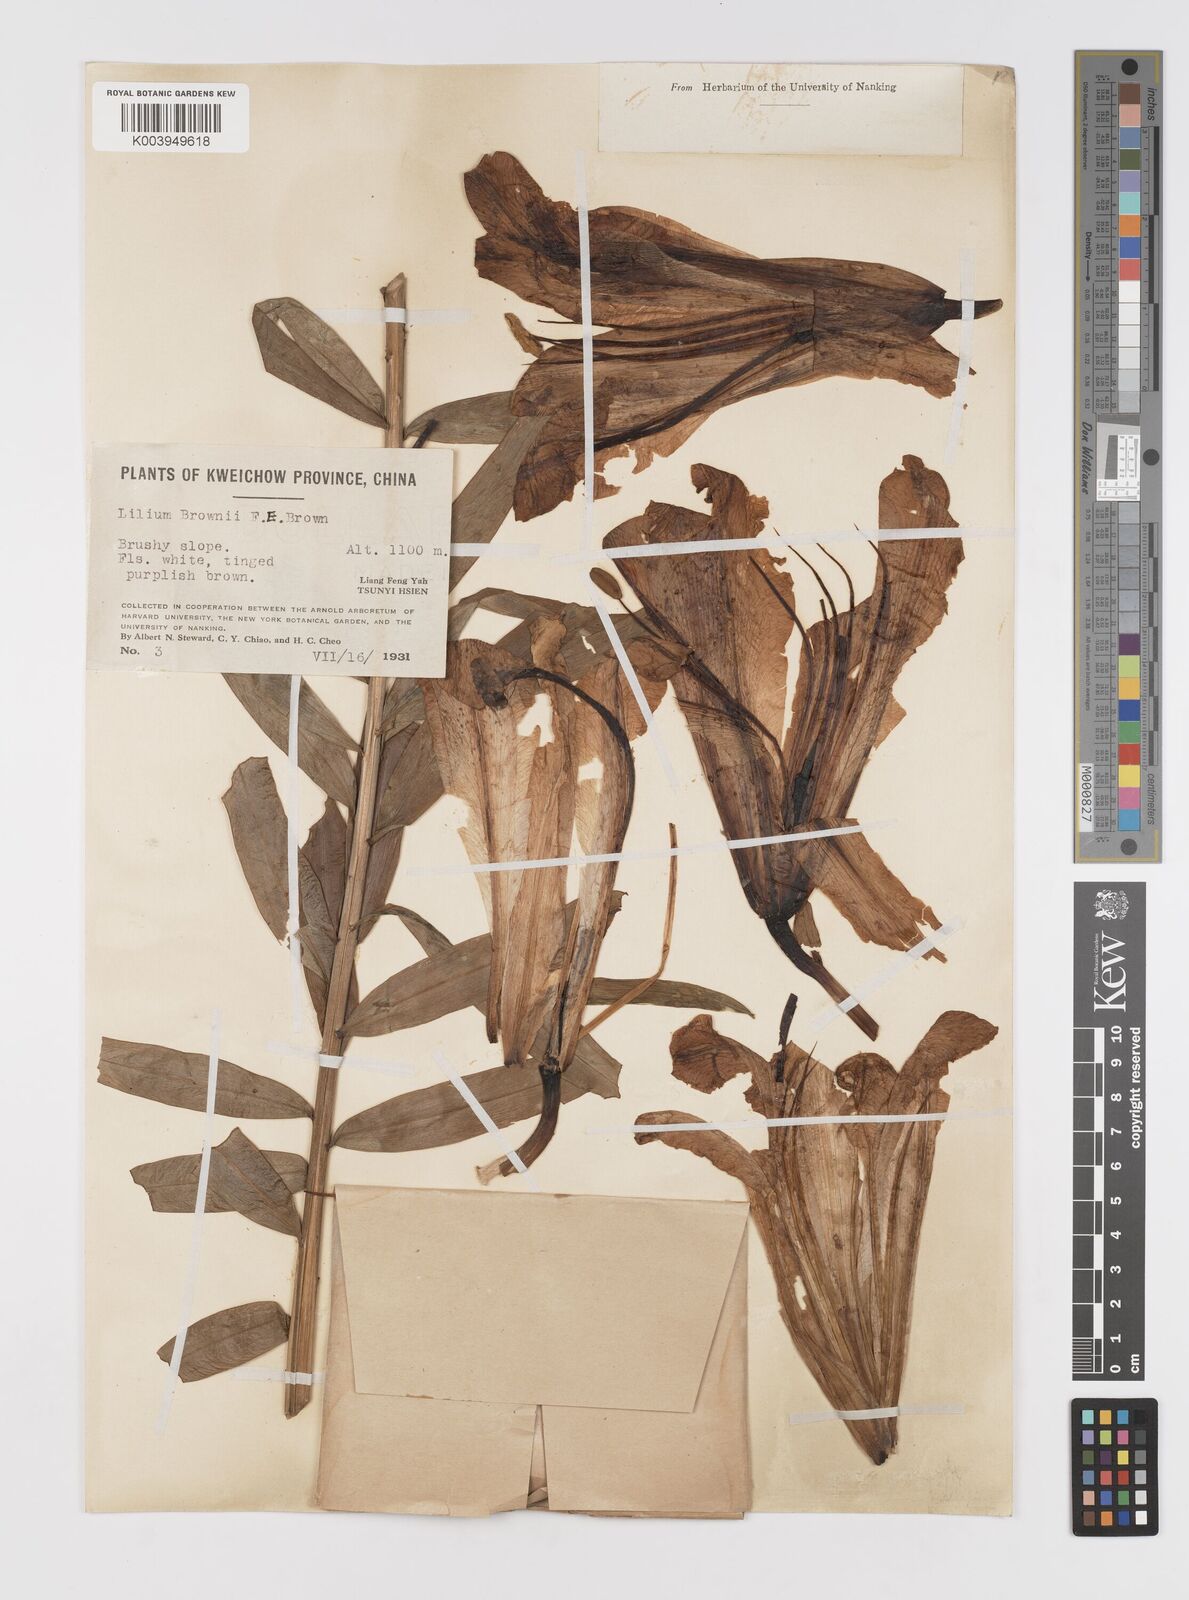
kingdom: Plantae
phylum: Tracheophyta
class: Liliopsida
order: Liliales
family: Liliaceae
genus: Lilium
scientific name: Lilium
